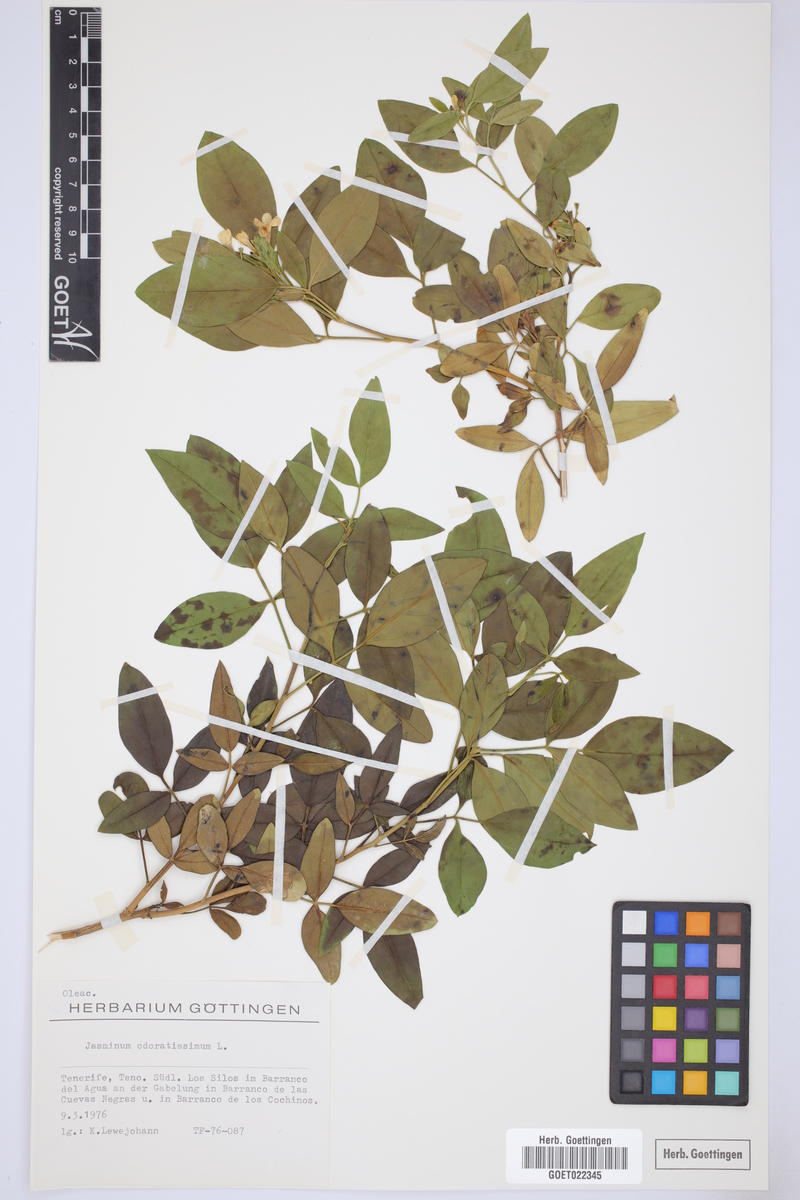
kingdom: Plantae
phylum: Tracheophyta
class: Magnoliopsida
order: Lamiales
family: Oleaceae
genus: Chrysojasminum
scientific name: Chrysojasminum odoratissimum
